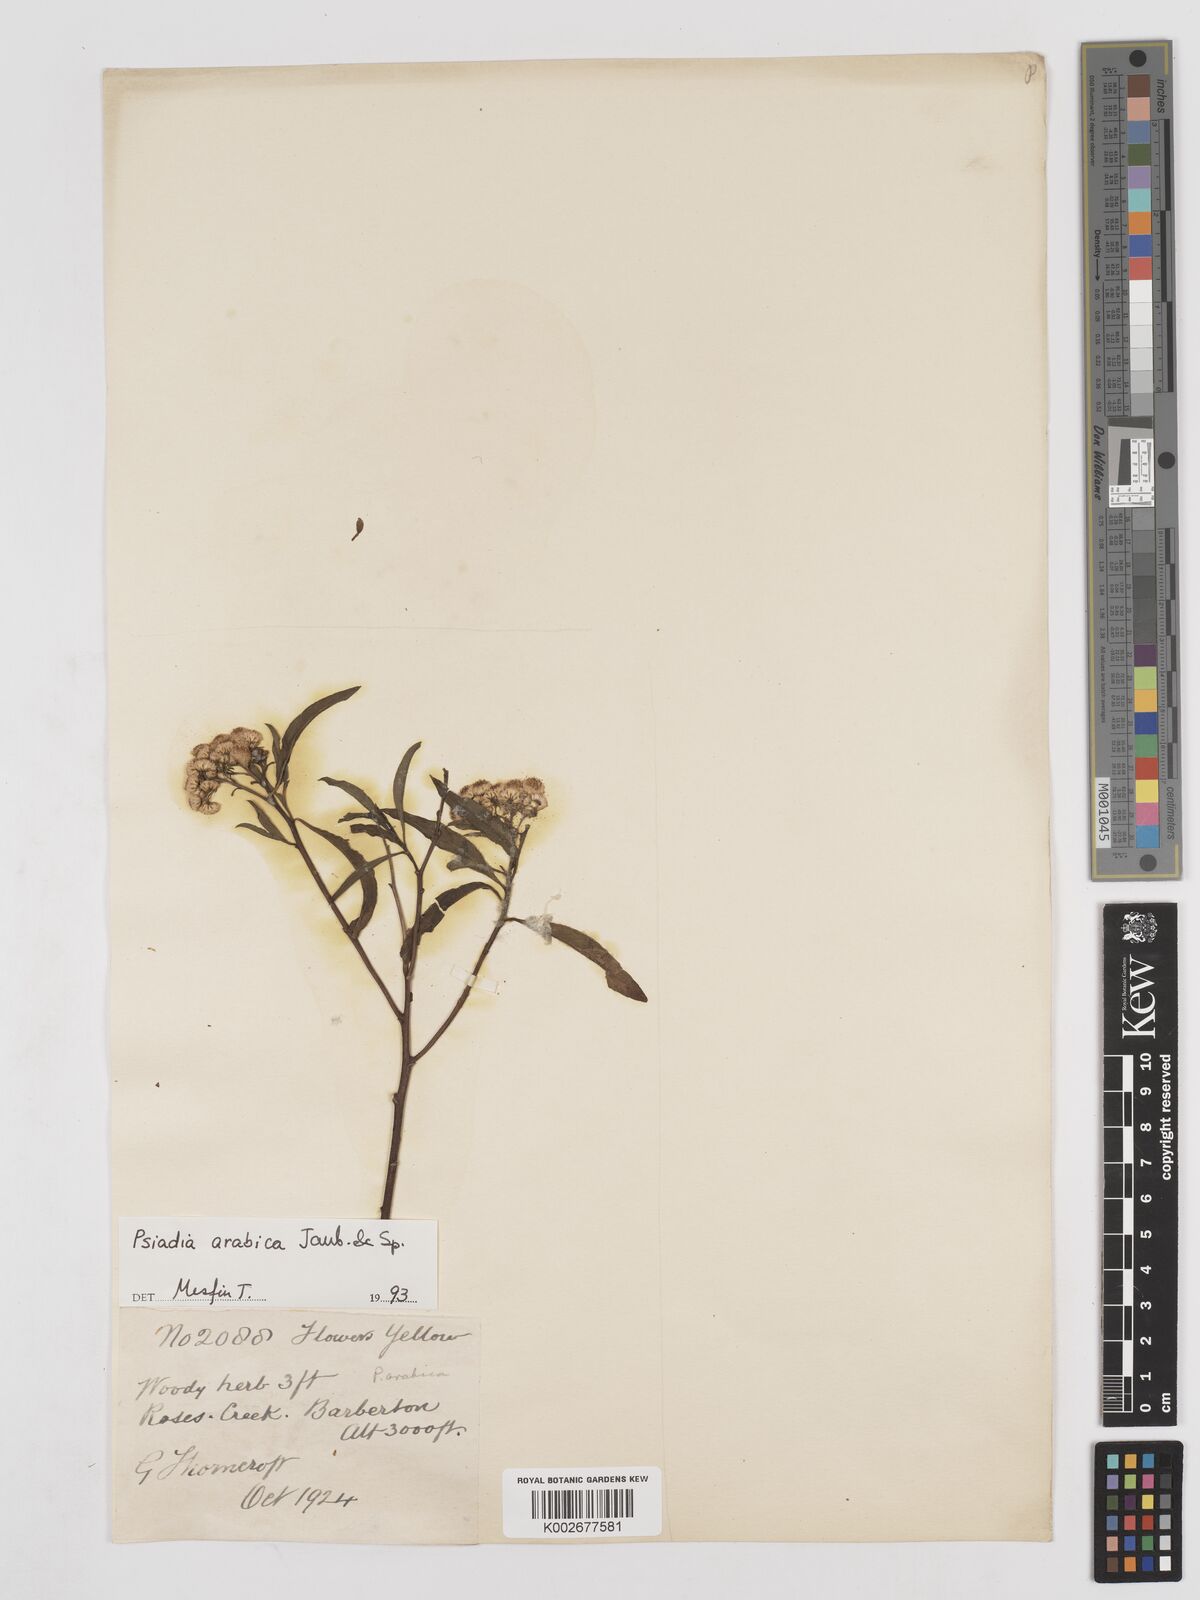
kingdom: Plantae
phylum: Tracheophyta
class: Magnoliopsida
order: Asterales
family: Asteraceae
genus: Psiadia
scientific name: Psiadia punctulata
